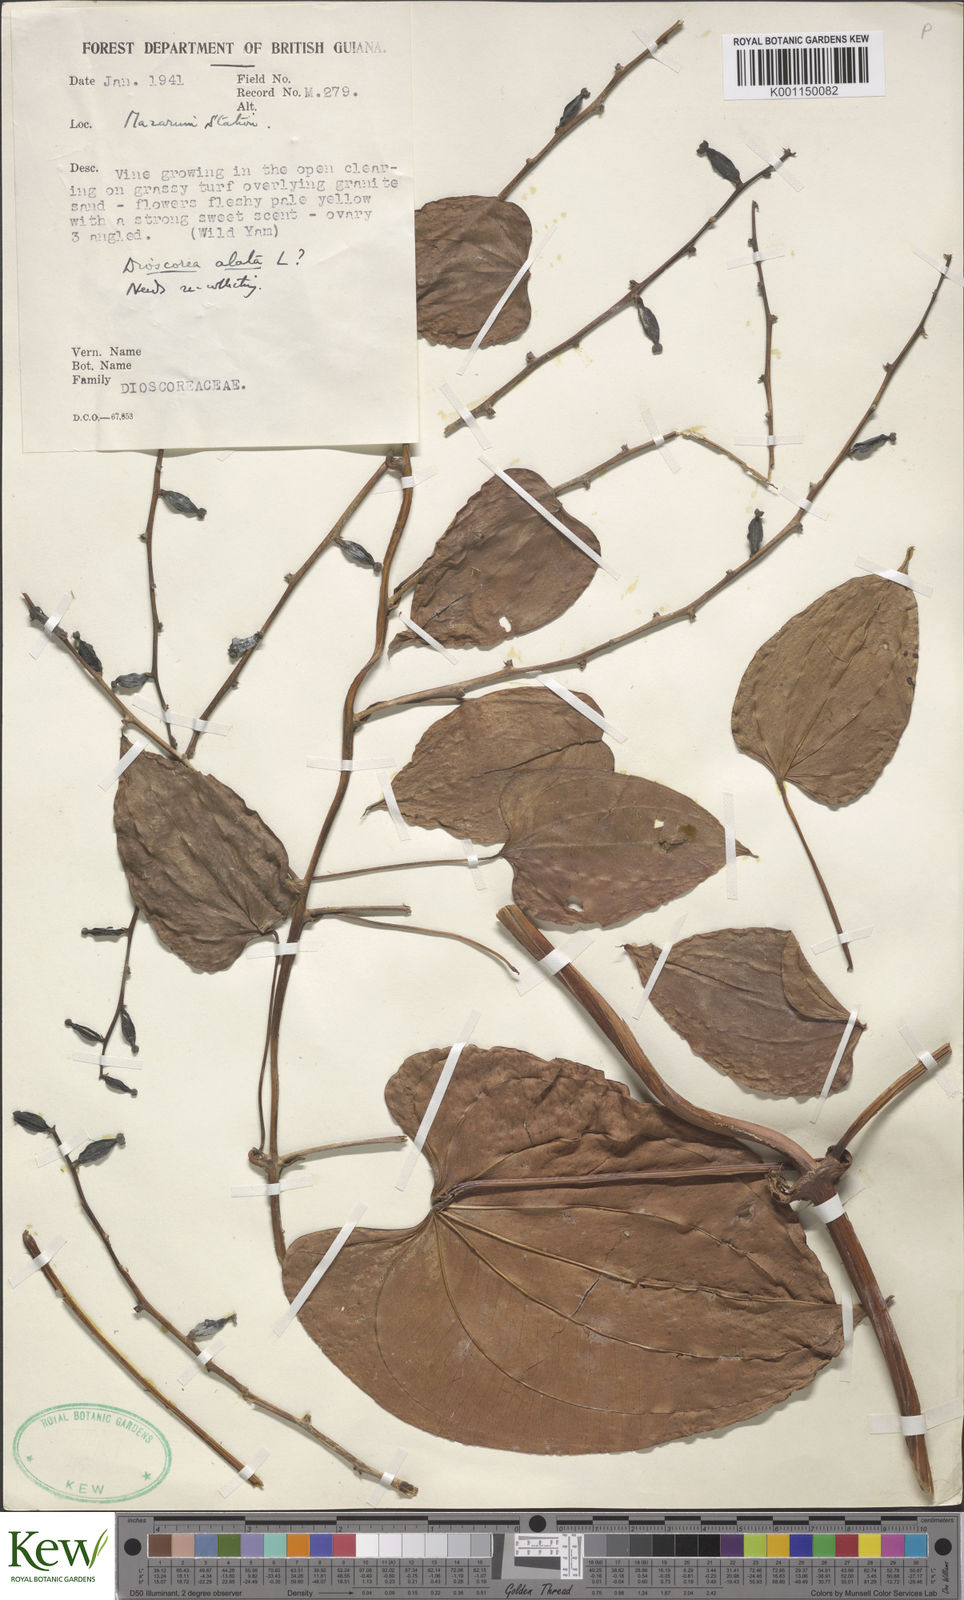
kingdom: Plantae
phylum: Tracheophyta
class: Liliopsida
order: Dioscoreales
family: Dioscoreaceae
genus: Dioscorea
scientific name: Dioscorea alata
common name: Water yam
